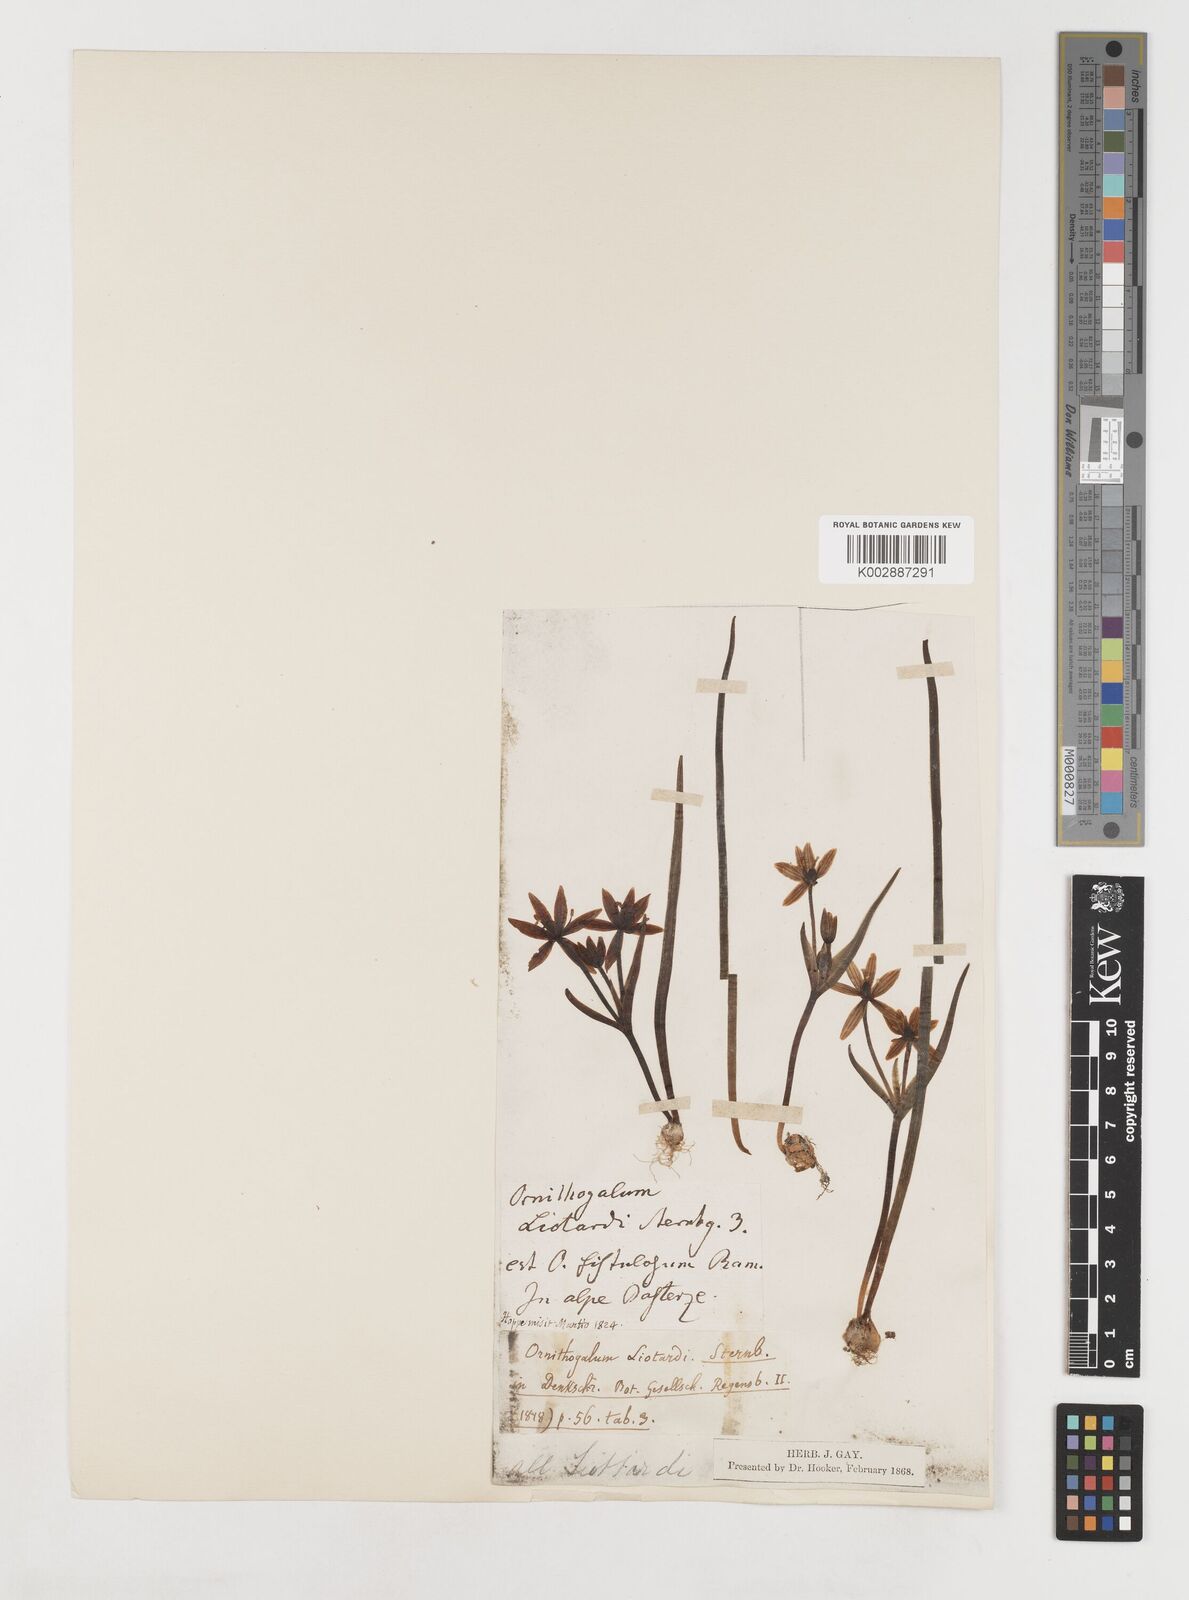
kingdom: Plantae
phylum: Tracheophyta
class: Liliopsida
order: Liliales
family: Liliaceae
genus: Gagea
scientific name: Gagea bohemica
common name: Early star-of-bethlehem
